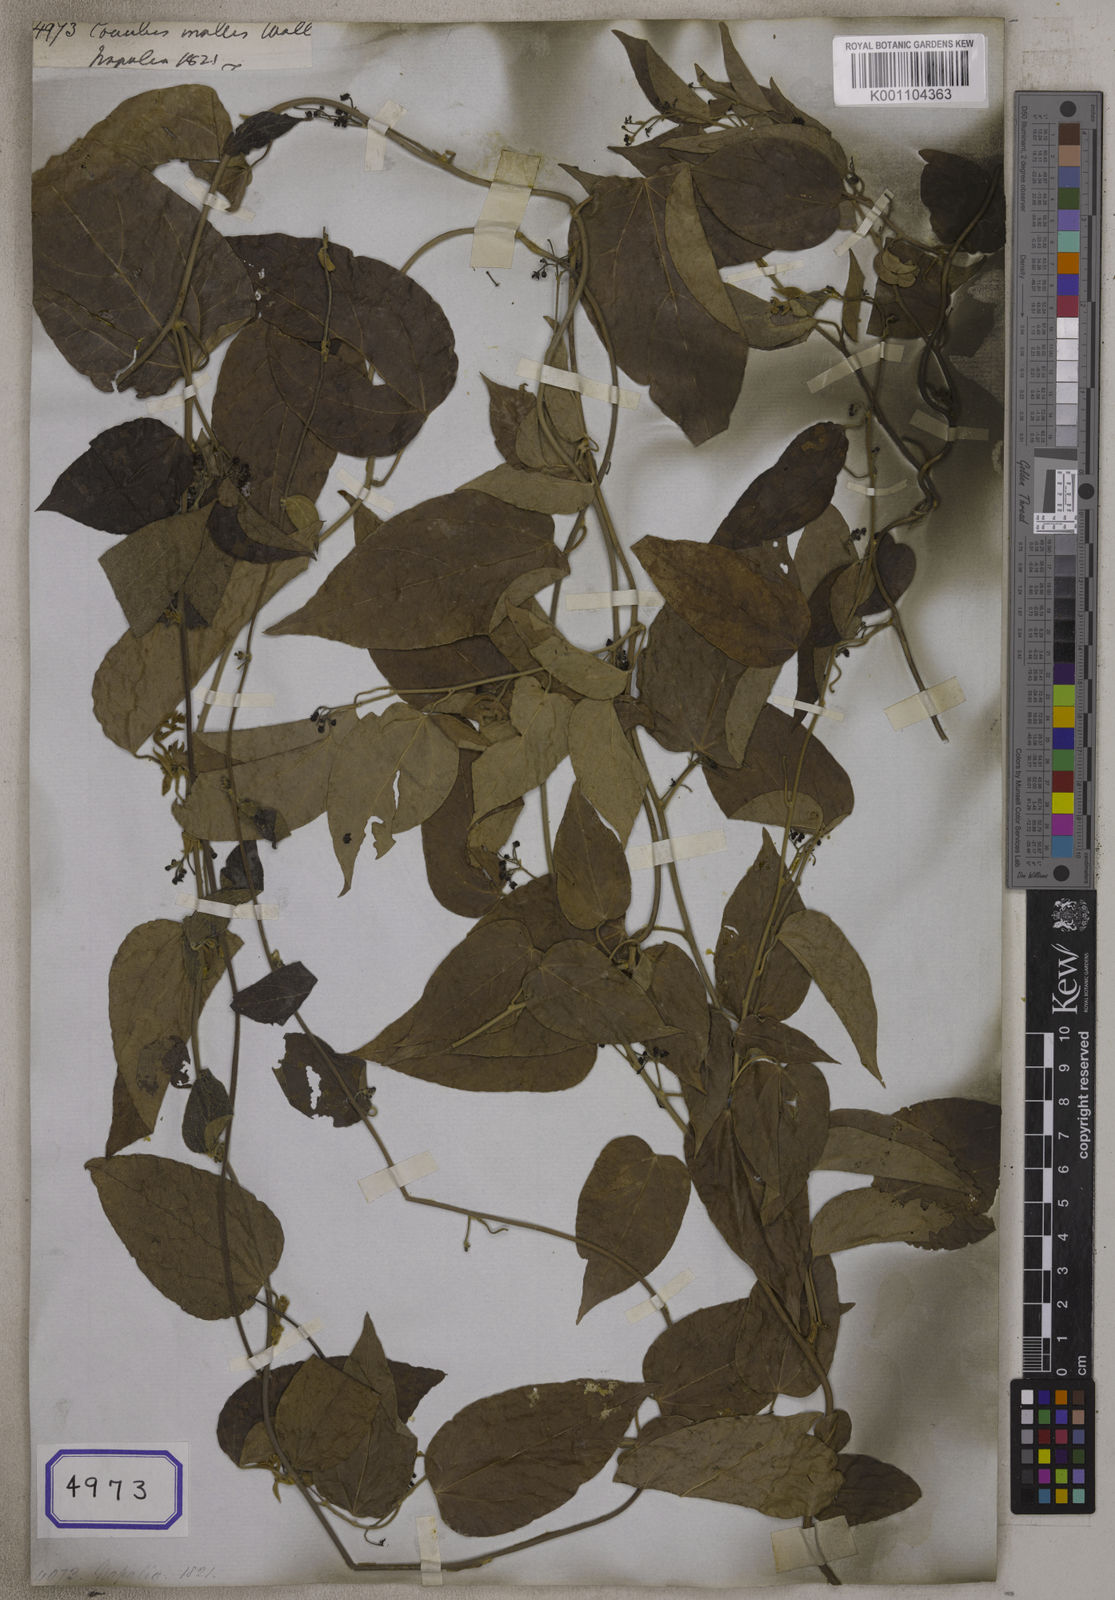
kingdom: Plantae
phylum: Tracheophyta
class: Magnoliopsida
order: Ranunculales
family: Menispermaceae
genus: Cocculus
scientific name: Cocculus
